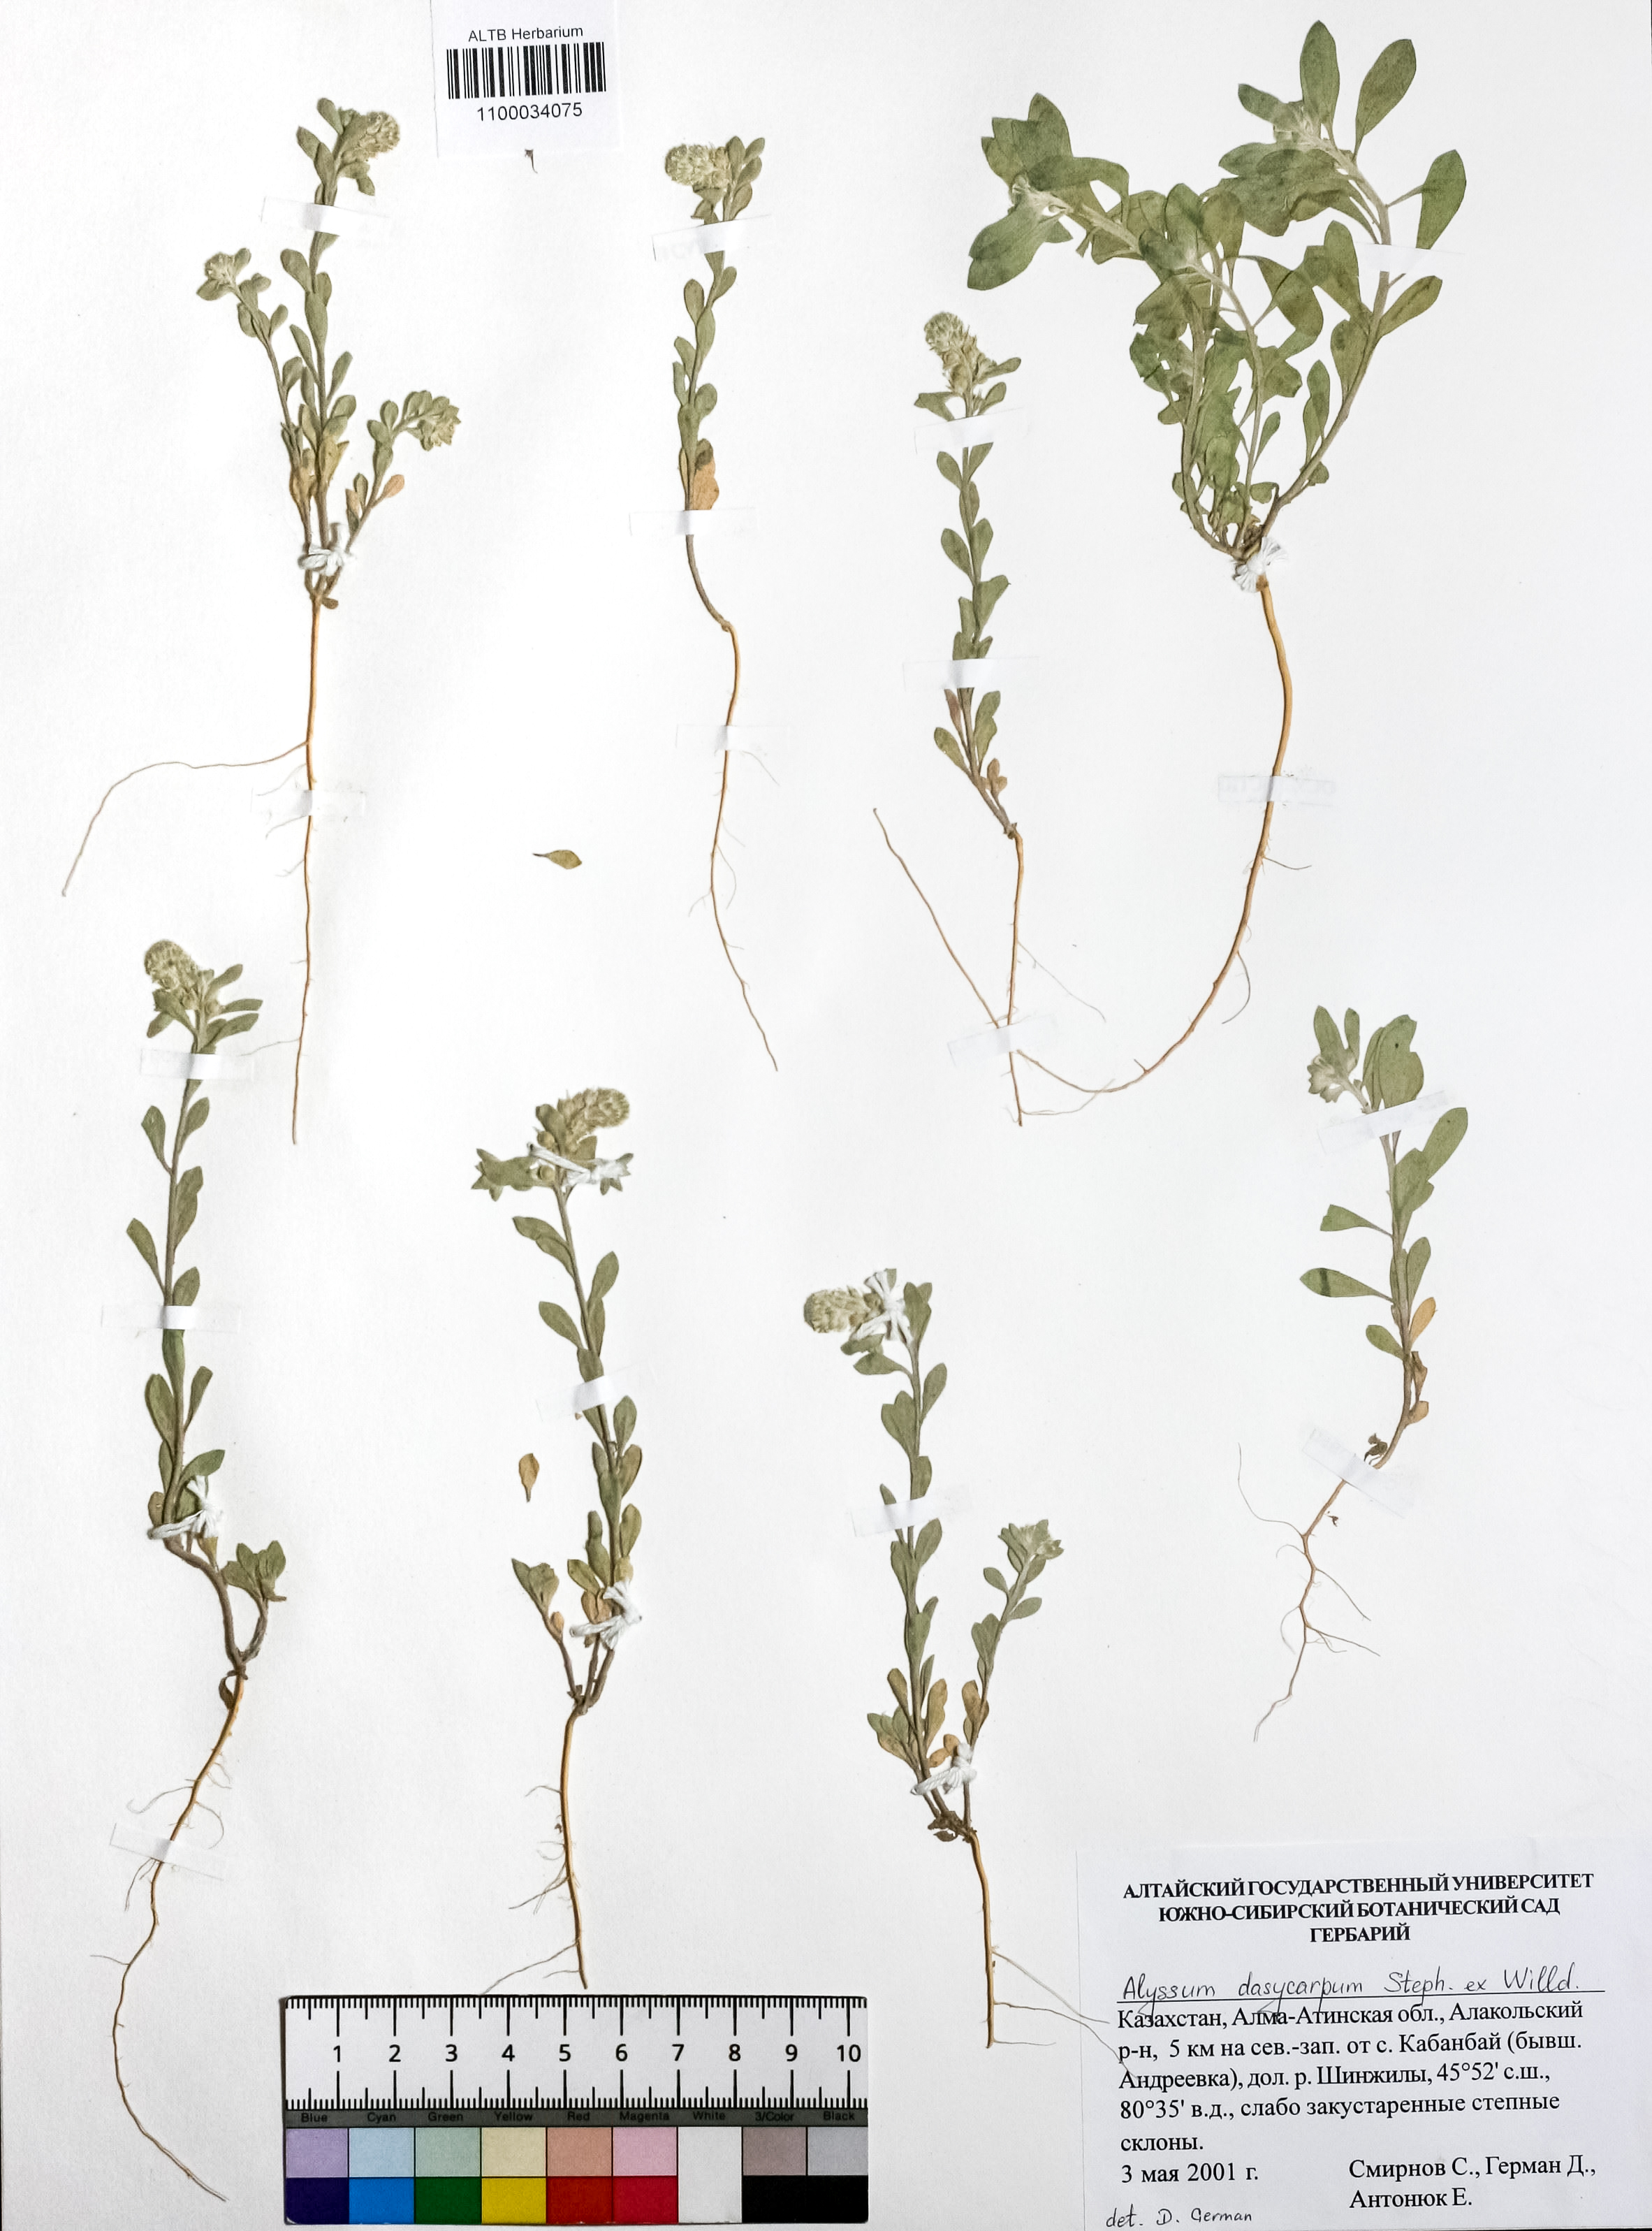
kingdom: Plantae
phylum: Tracheophyta
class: Magnoliopsida
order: Brassicales
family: Brassicaceae
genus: Alyssum
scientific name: Alyssum dasycarpum
